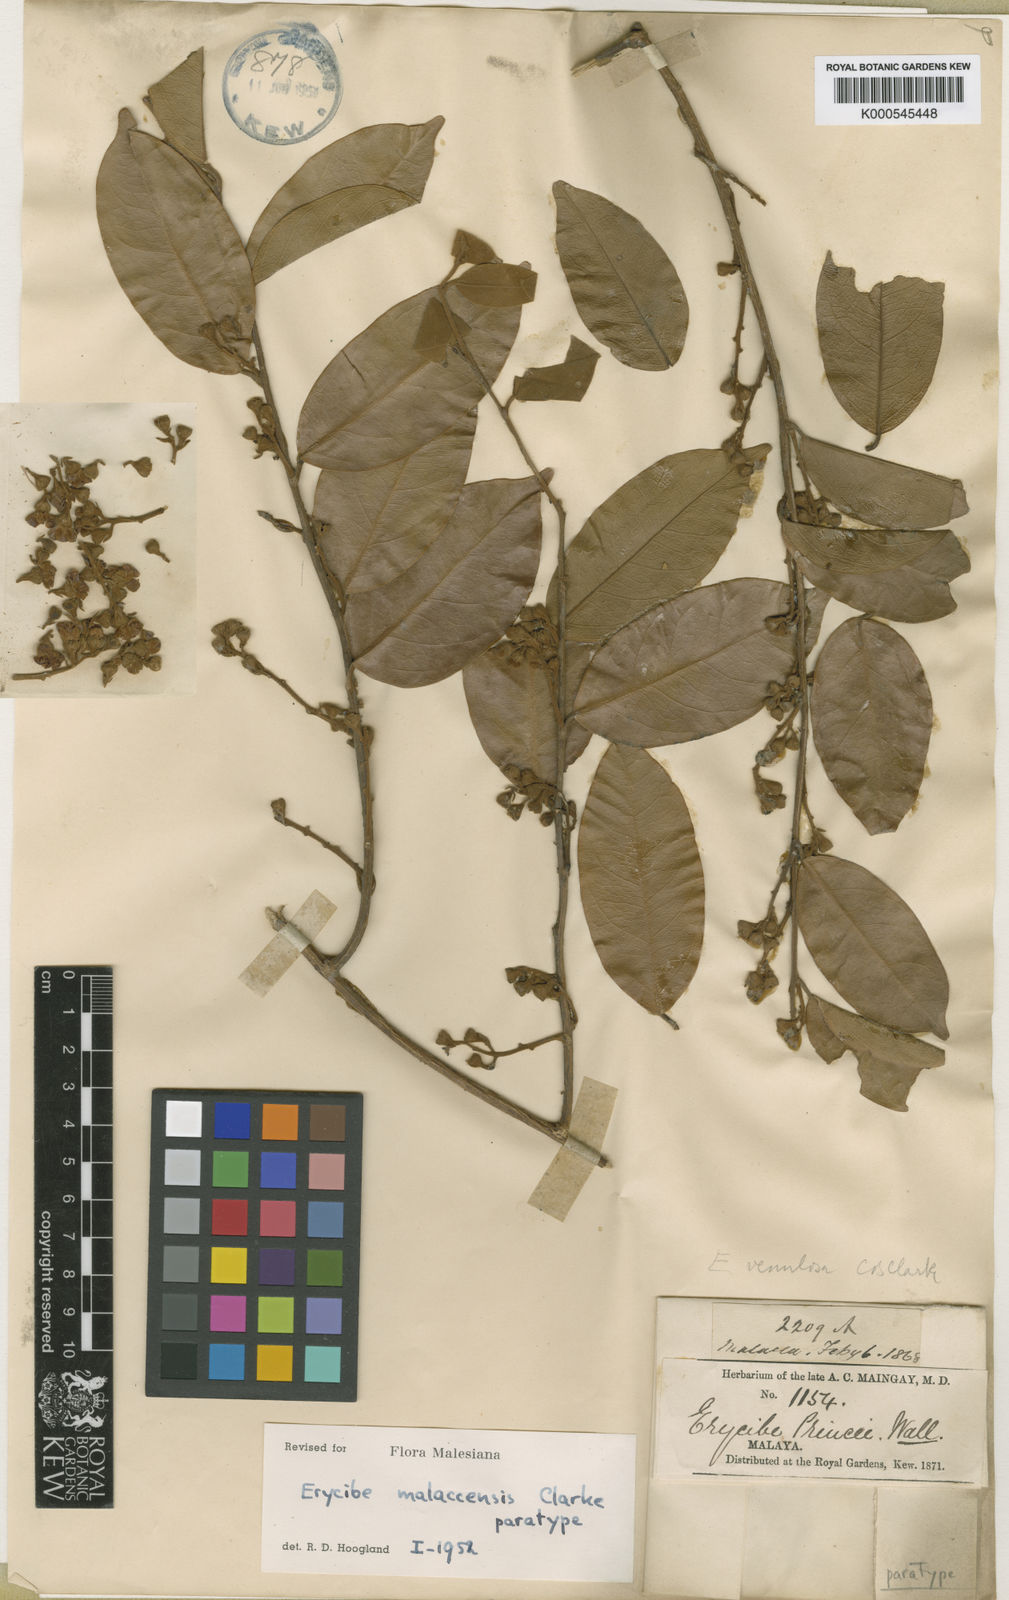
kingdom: Plantae
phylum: Tracheophyta
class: Magnoliopsida
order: Solanales
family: Convolvulaceae
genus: Erycibe
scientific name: Erycibe malaccensis
